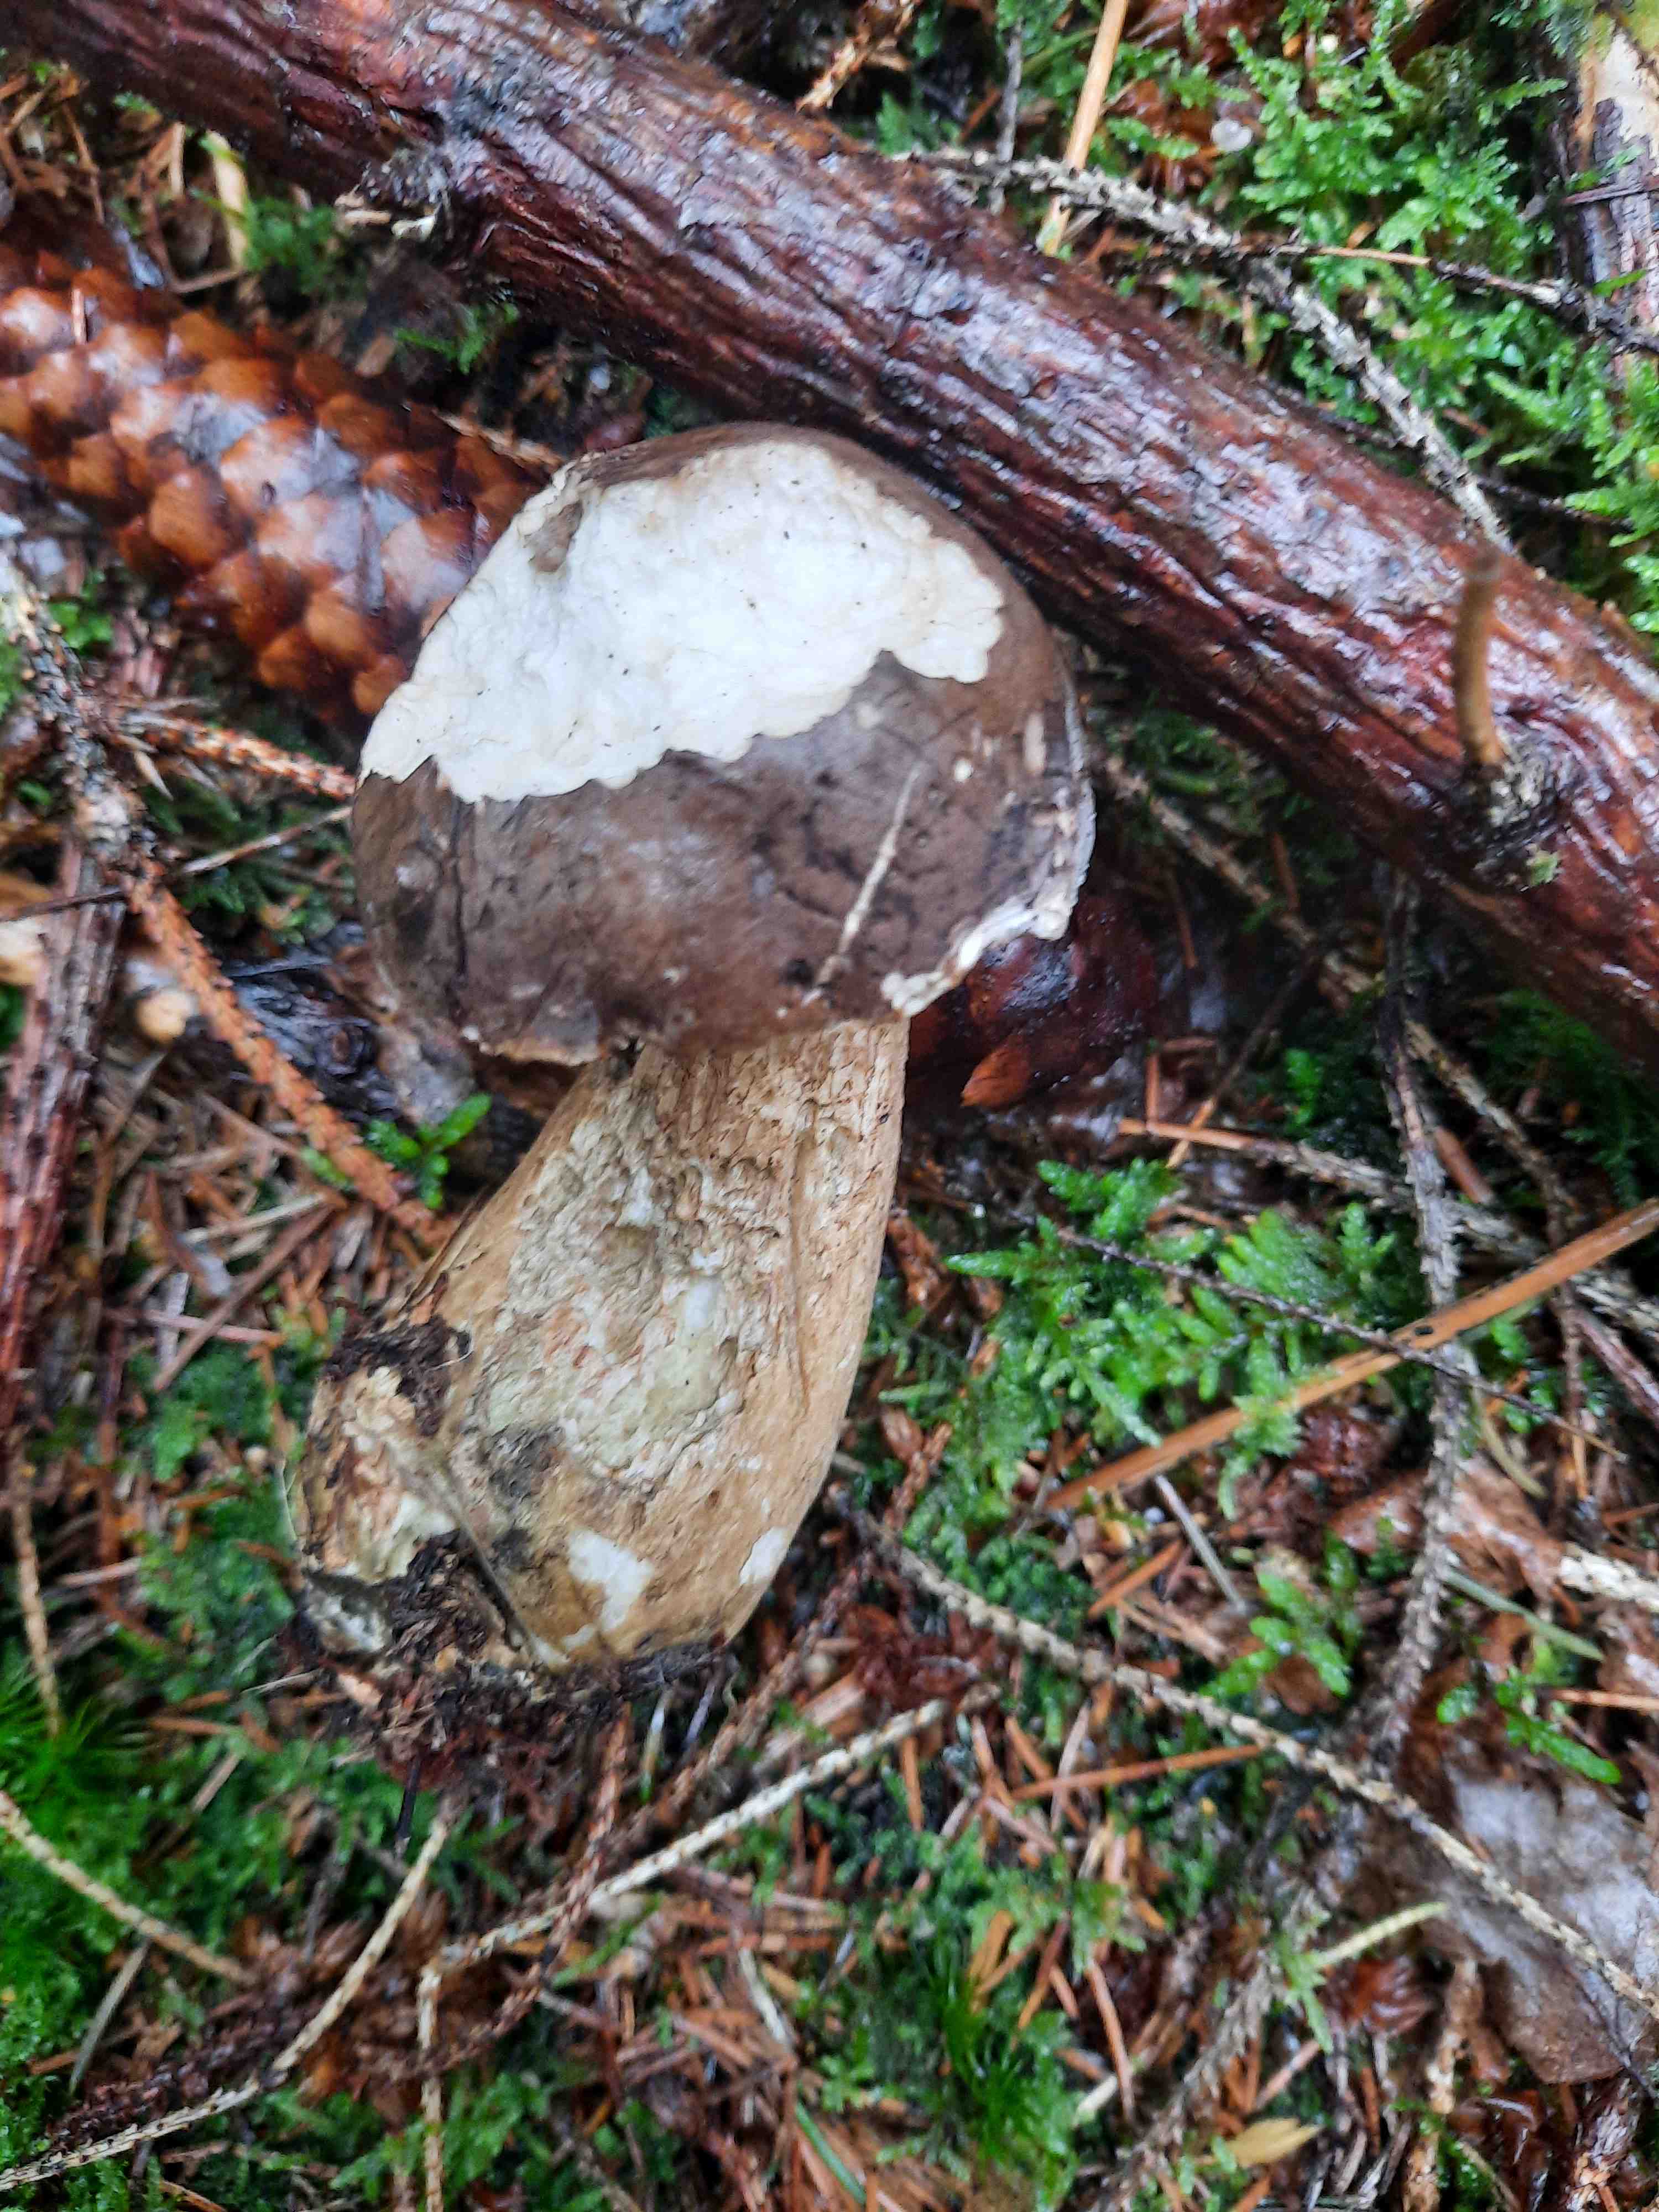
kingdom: Fungi
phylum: Basidiomycota
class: Agaricomycetes
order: Boletales
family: Boletaceae
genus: Tylopilus
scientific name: Tylopilus felleus
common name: galderørhat
